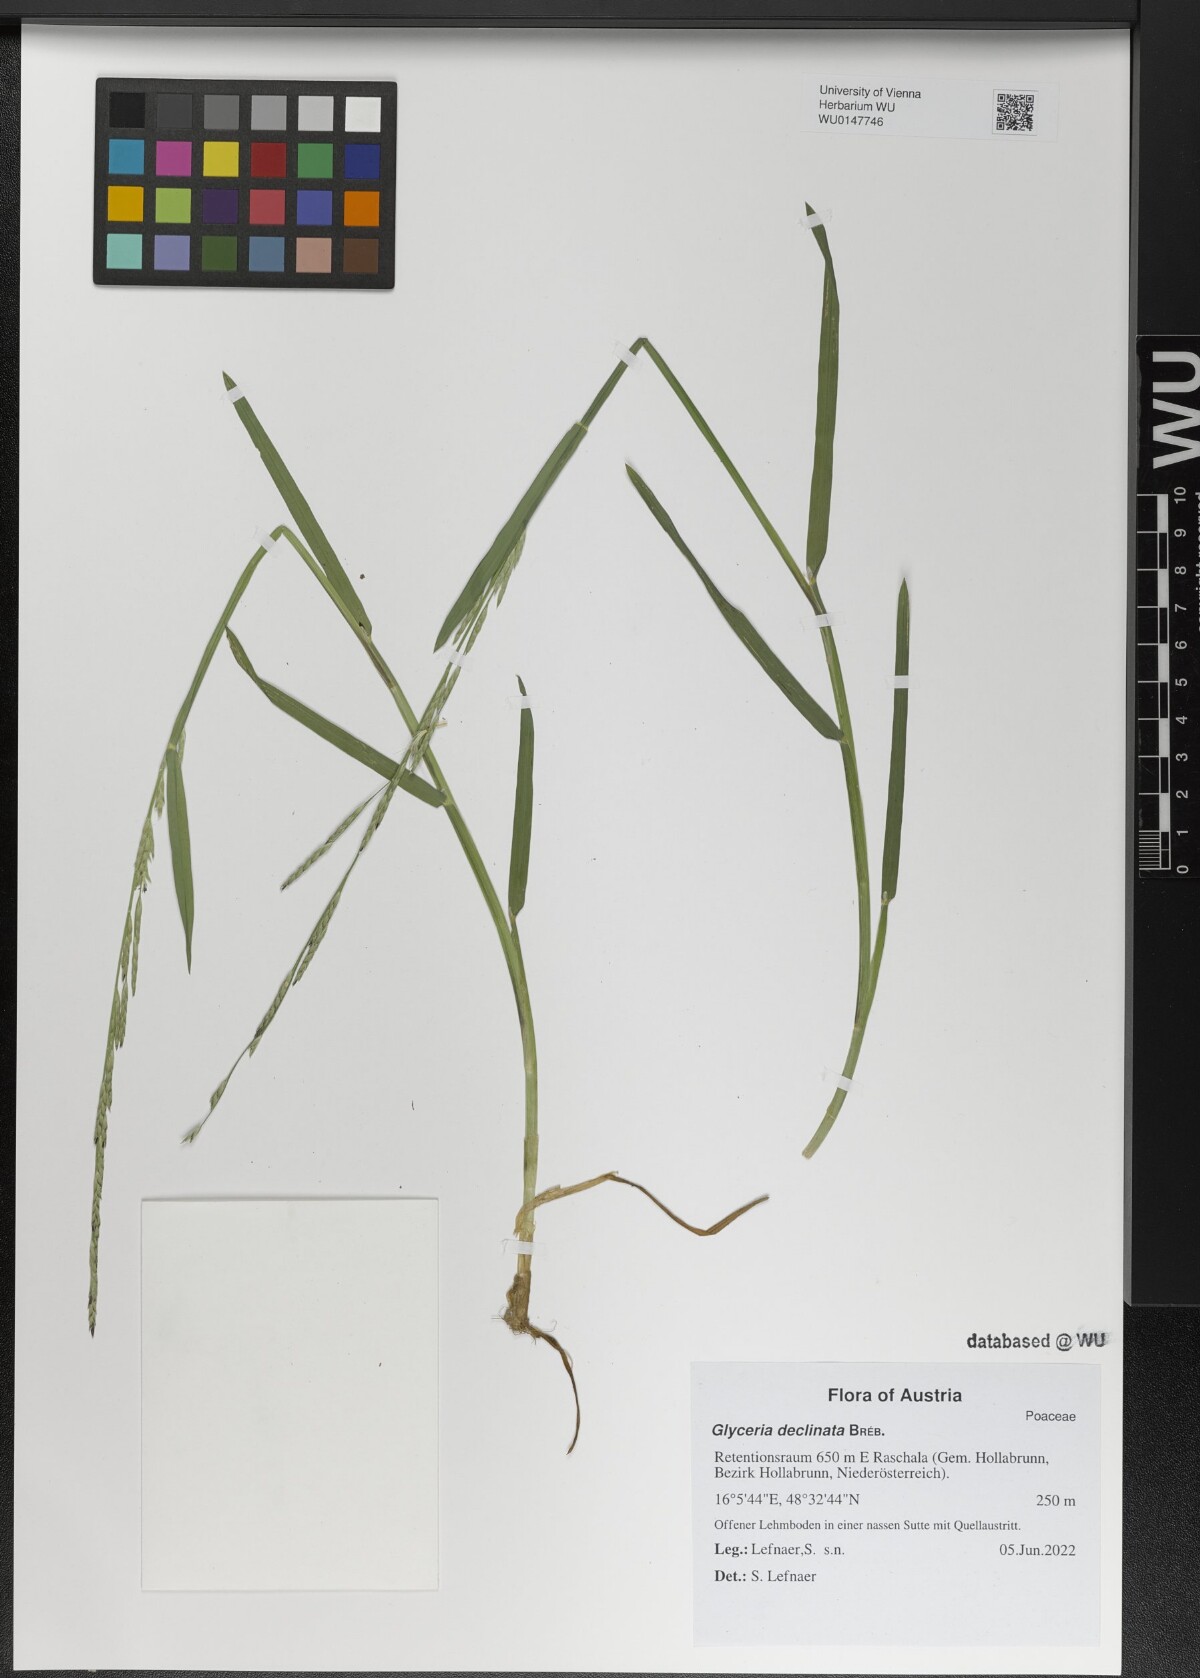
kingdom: Plantae
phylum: Tracheophyta
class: Liliopsida
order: Poales
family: Poaceae
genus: Glyceria
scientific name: Glyceria declinata
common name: Small sweet-grass
